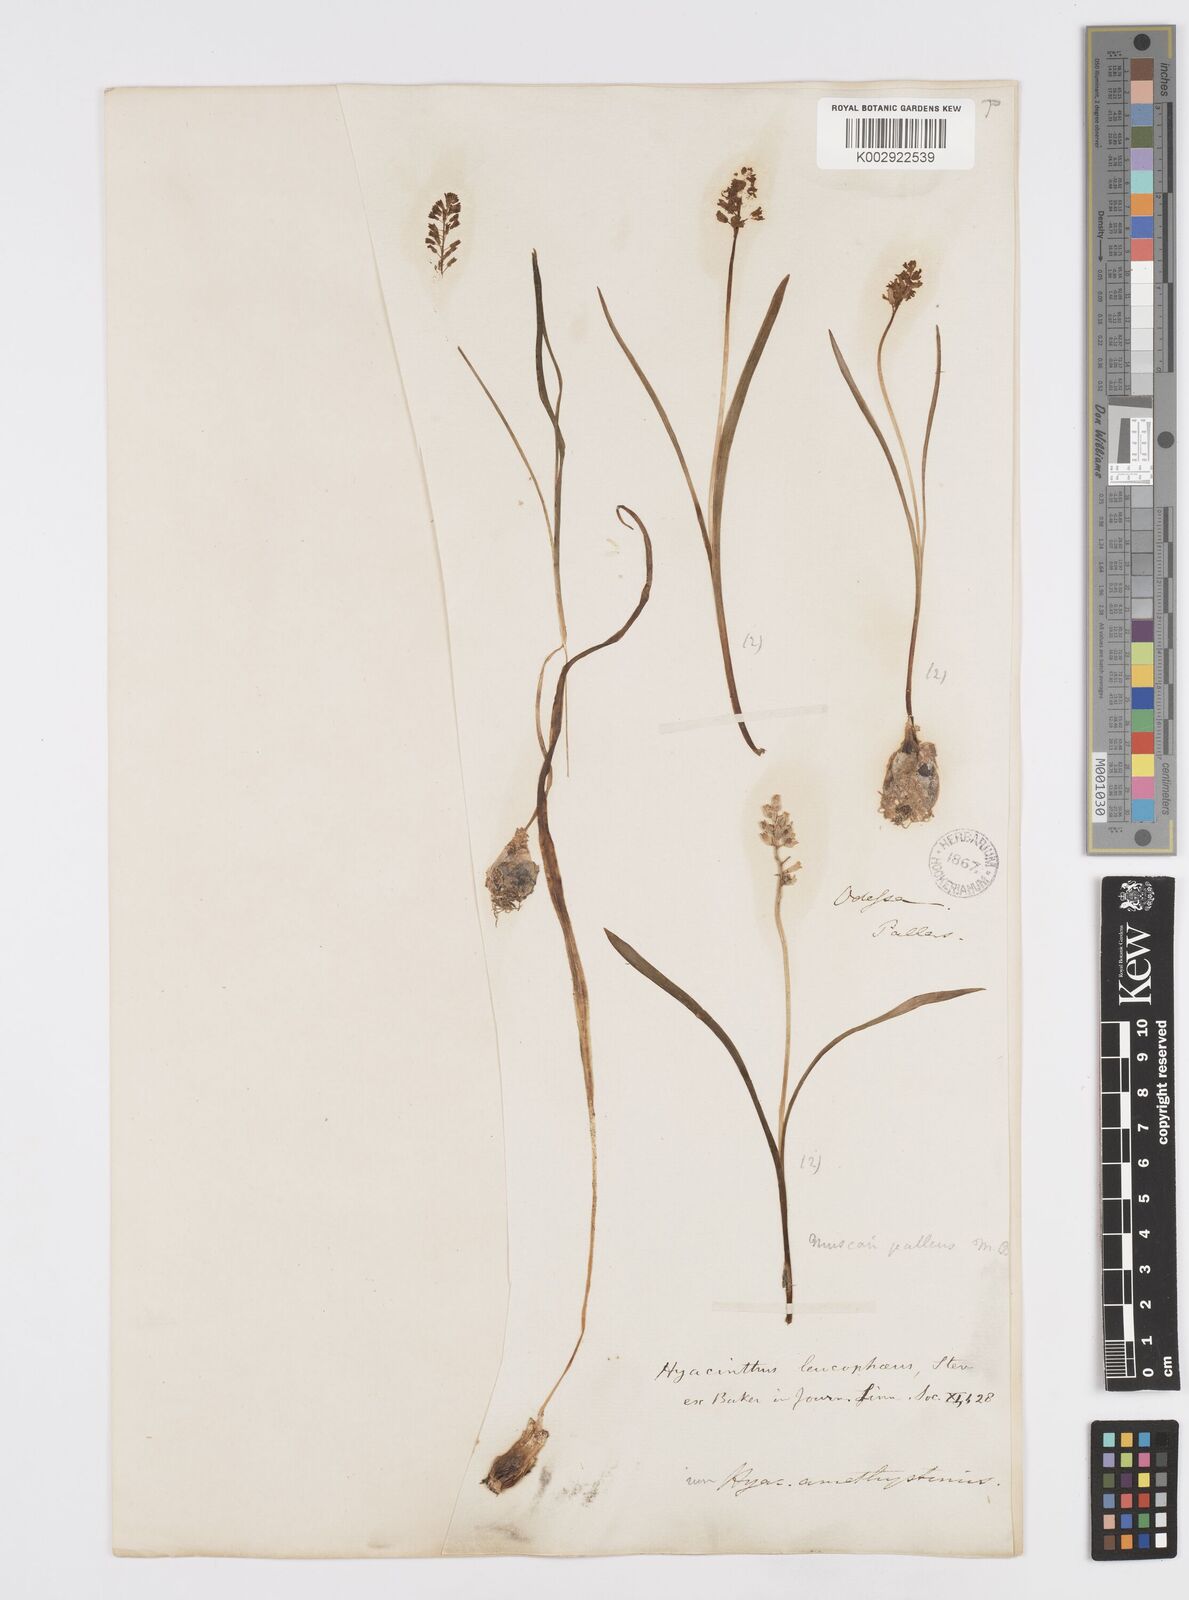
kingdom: Plantae
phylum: Tracheophyta
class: Liliopsida
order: Asparagales
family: Asparagaceae
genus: Hyacinthella
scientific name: Hyacinthella leucophaea
